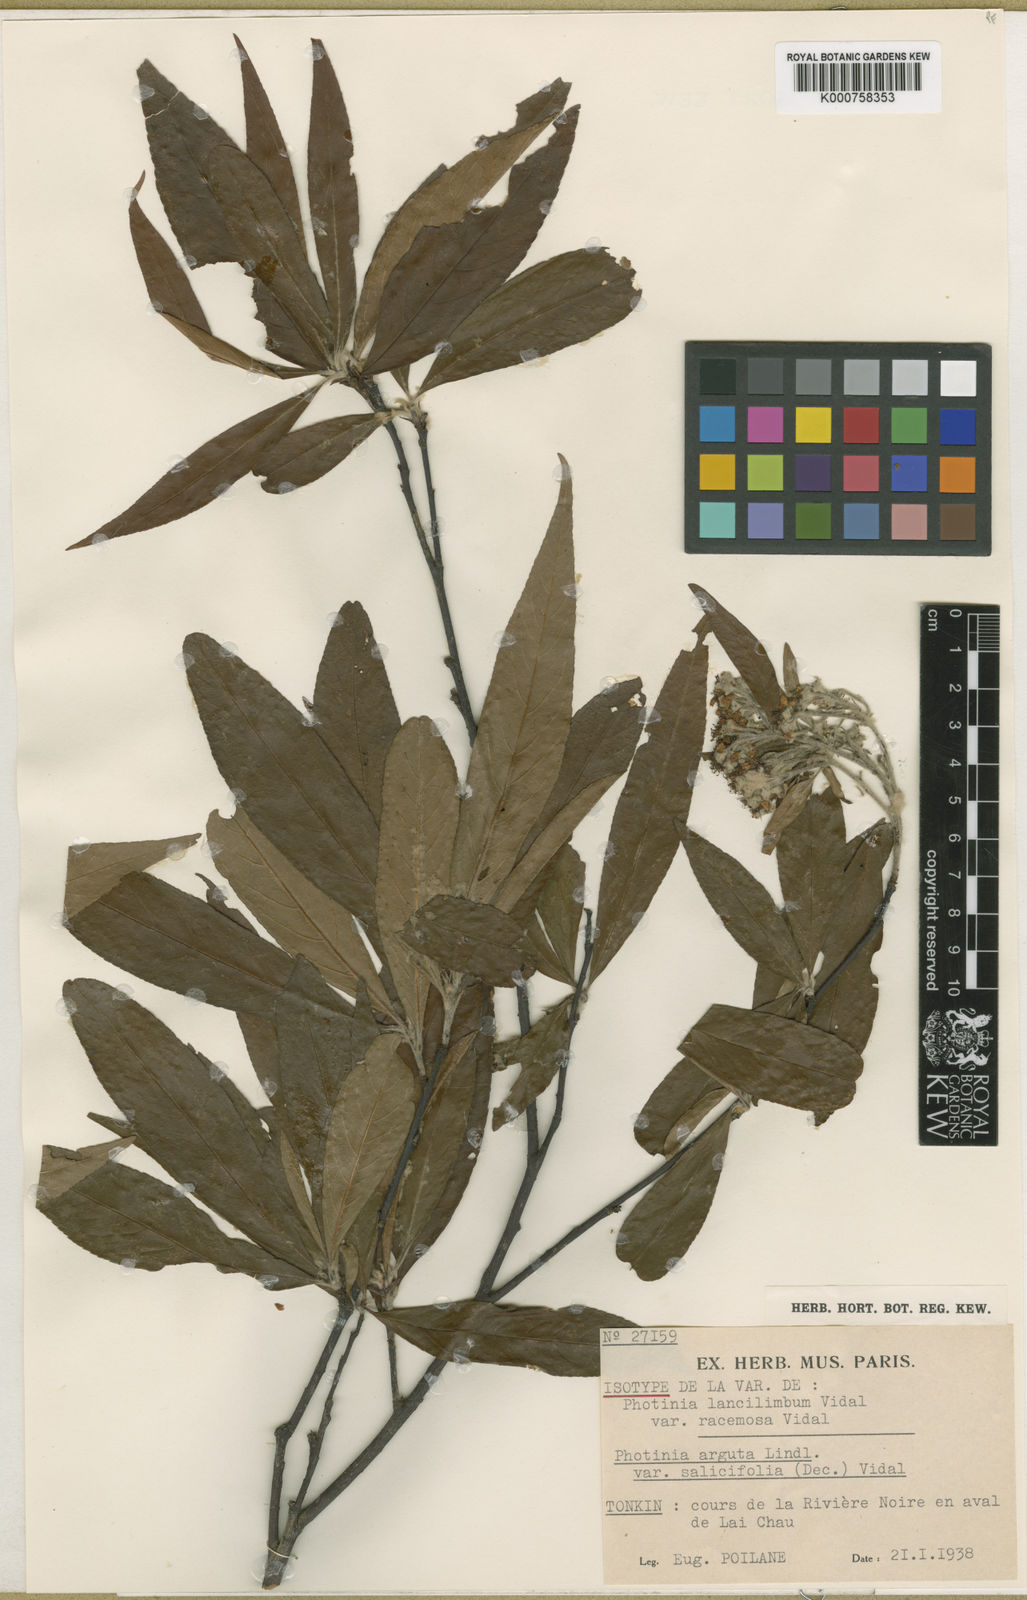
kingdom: Plantae
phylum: Tracheophyta
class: Magnoliopsida
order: Rosales
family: Rosaceae
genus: Photinia
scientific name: Photinia
